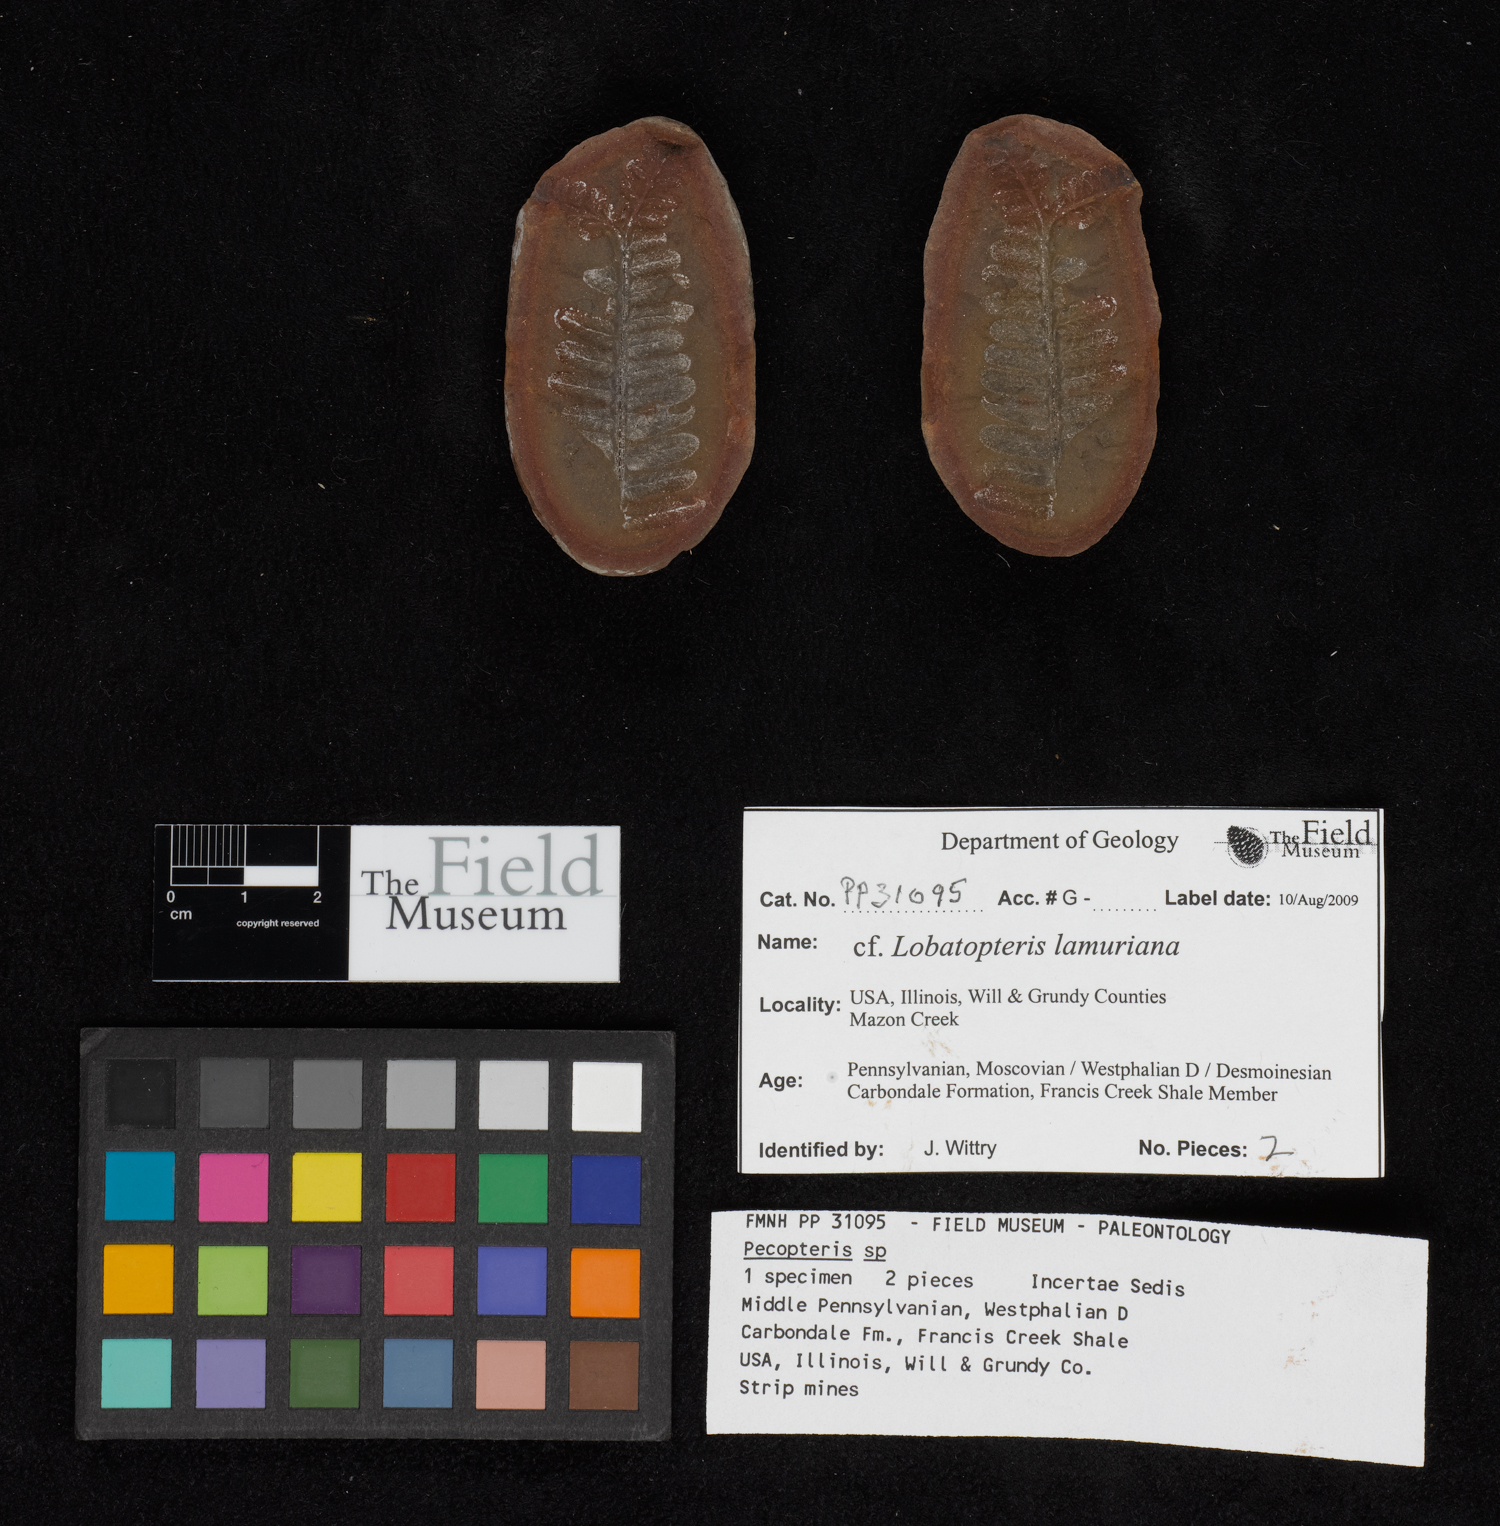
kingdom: Plantae
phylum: Tracheophyta
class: Polypodiopsida
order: Marattiales
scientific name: Marattiales
